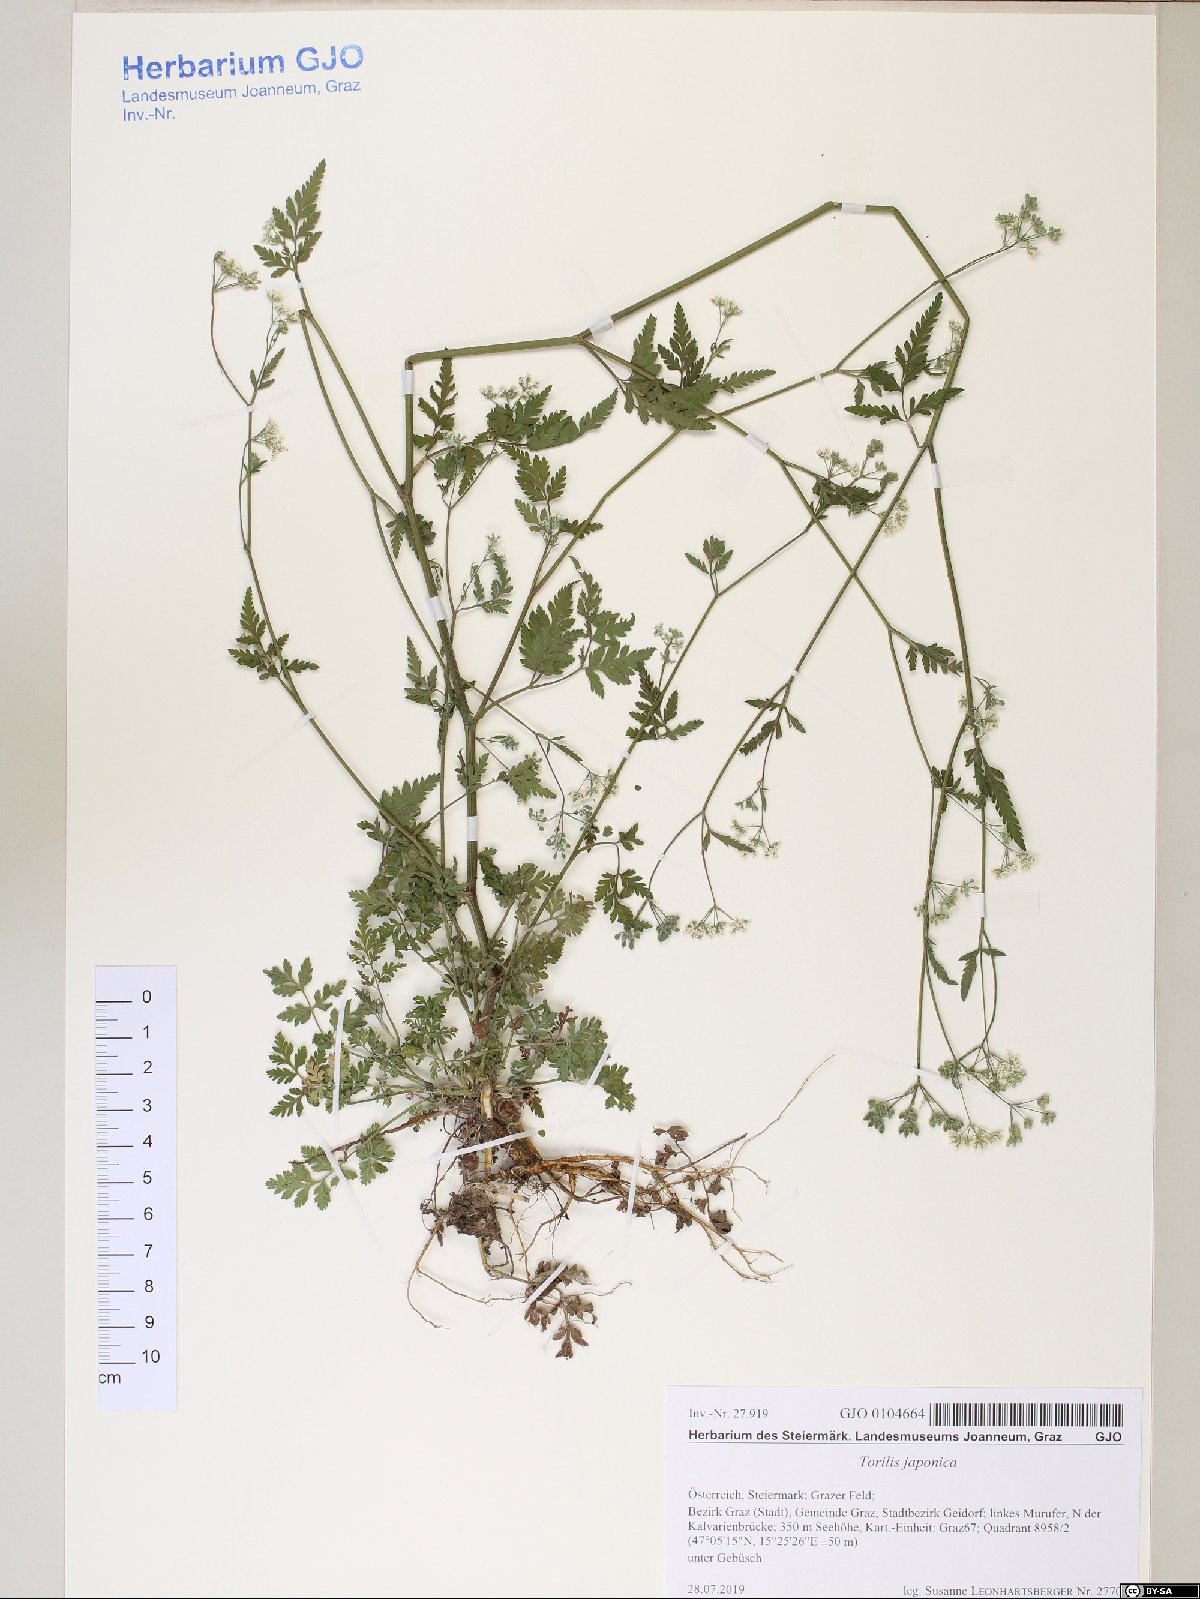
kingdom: Plantae
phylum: Tracheophyta
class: Magnoliopsida
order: Apiales
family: Apiaceae
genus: Torilis
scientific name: Torilis japonica
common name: Upright hedge-parsley
